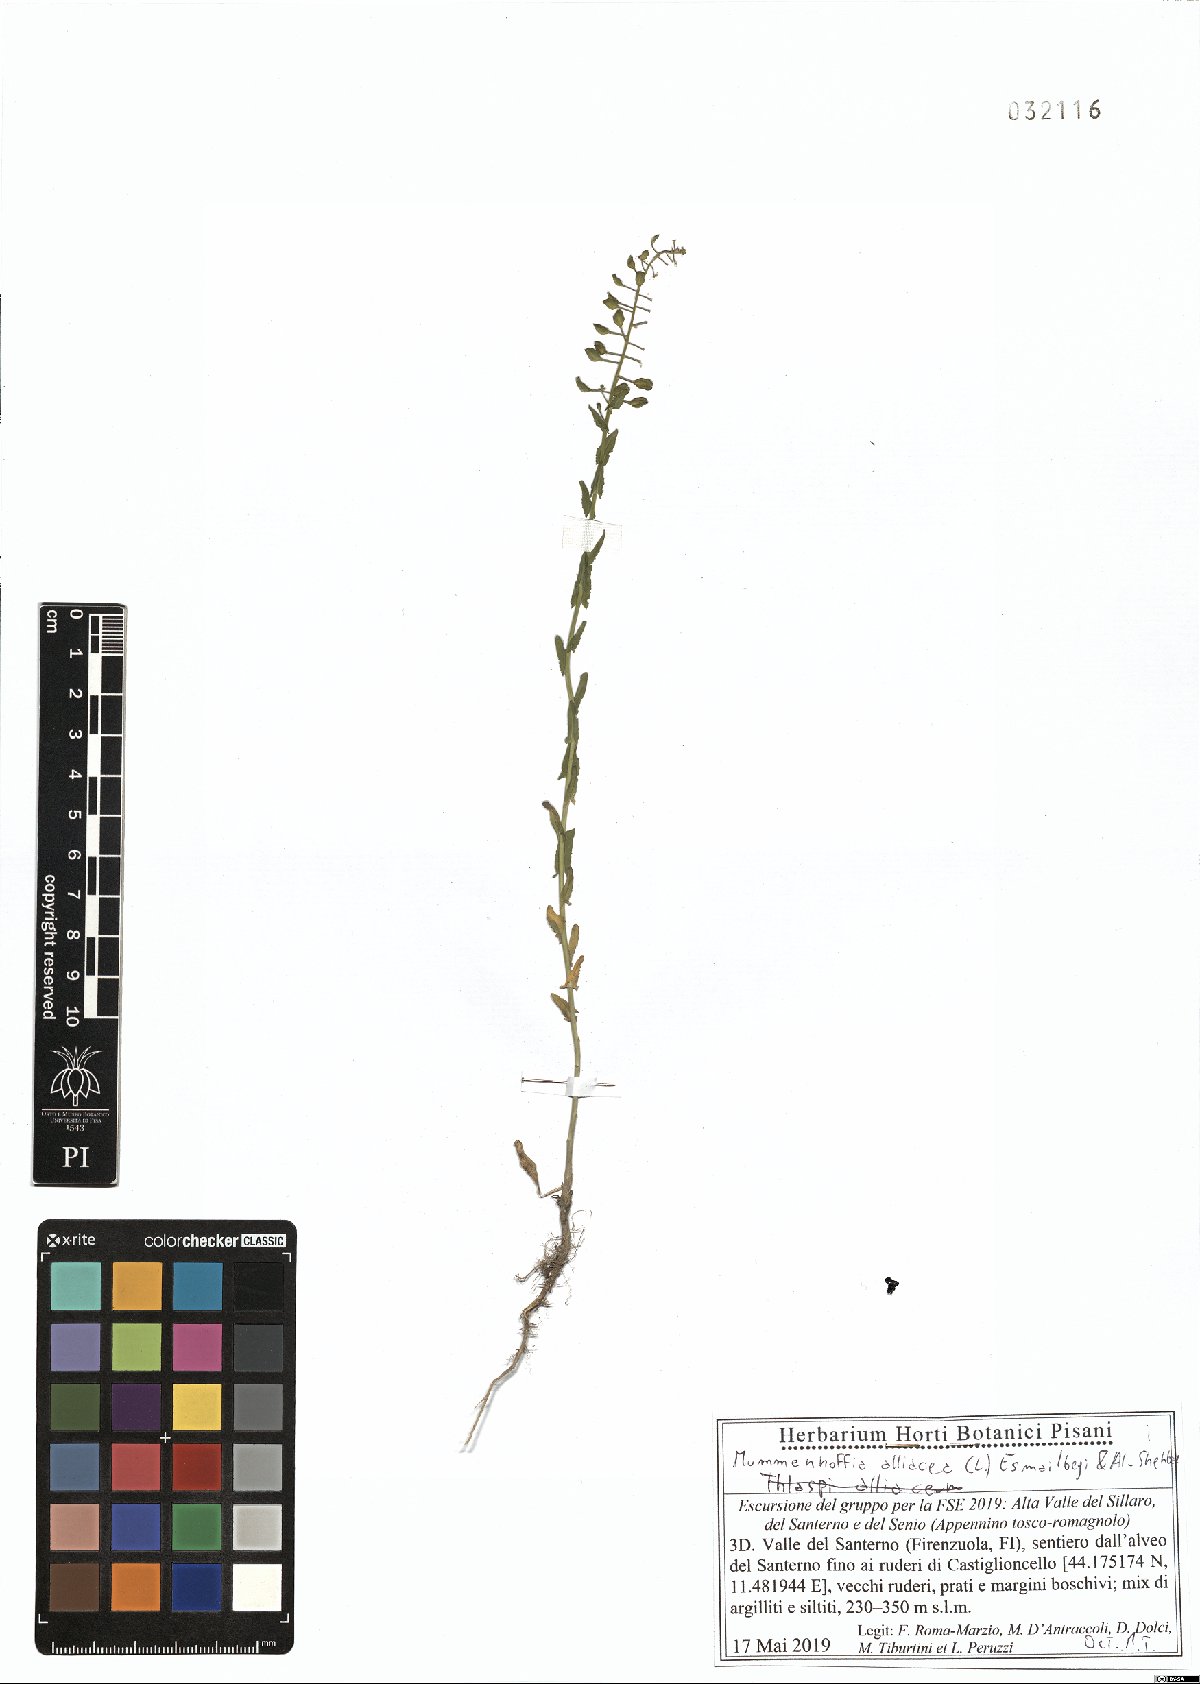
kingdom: Plantae
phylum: Tracheophyta
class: Magnoliopsida
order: Brassicales
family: Brassicaceae
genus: Mummenhoffia
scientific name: Mummenhoffia alliacea
